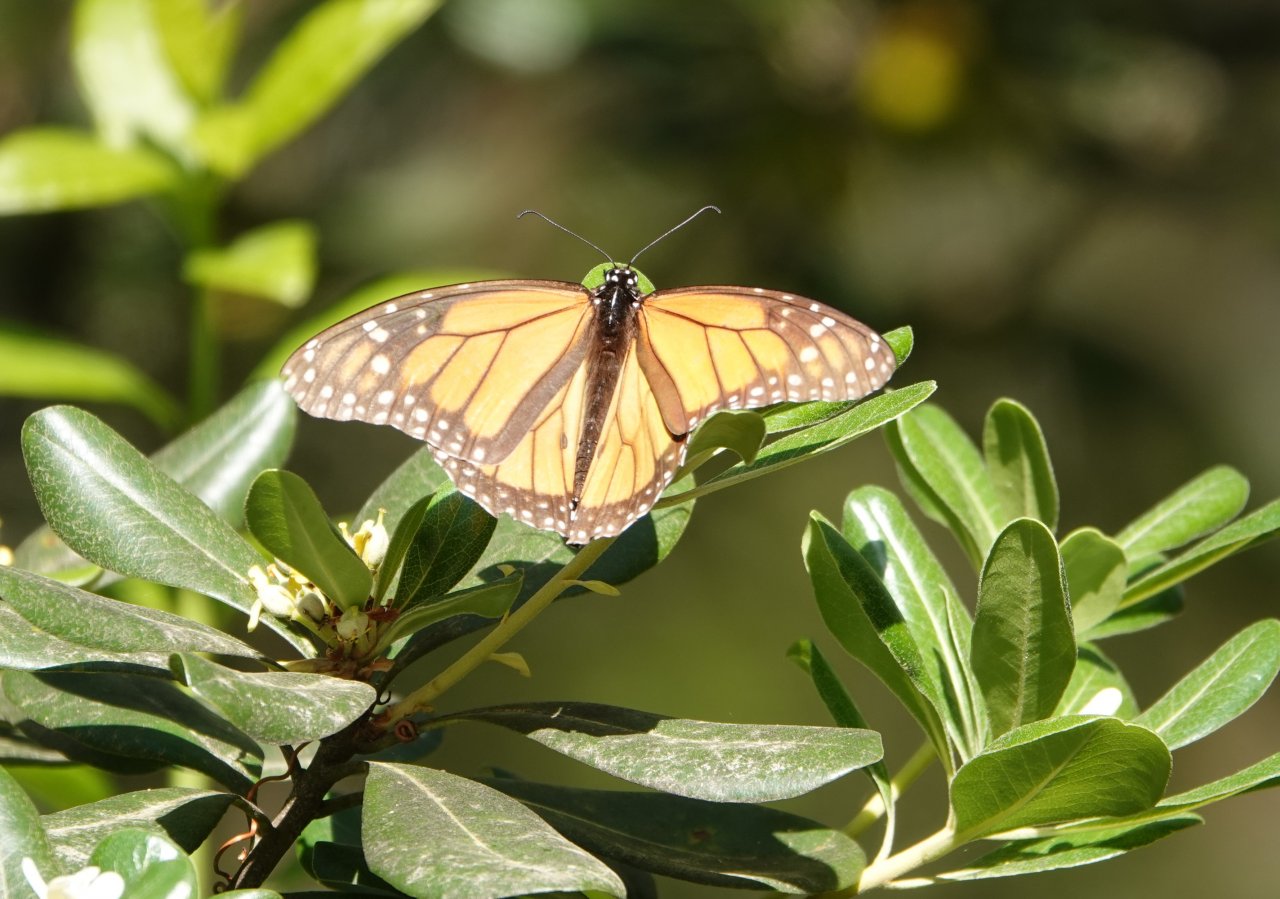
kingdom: Animalia
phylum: Arthropoda
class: Insecta
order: Lepidoptera
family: Nymphalidae
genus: Danaus
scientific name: Danaus plexippus
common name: Monarch
